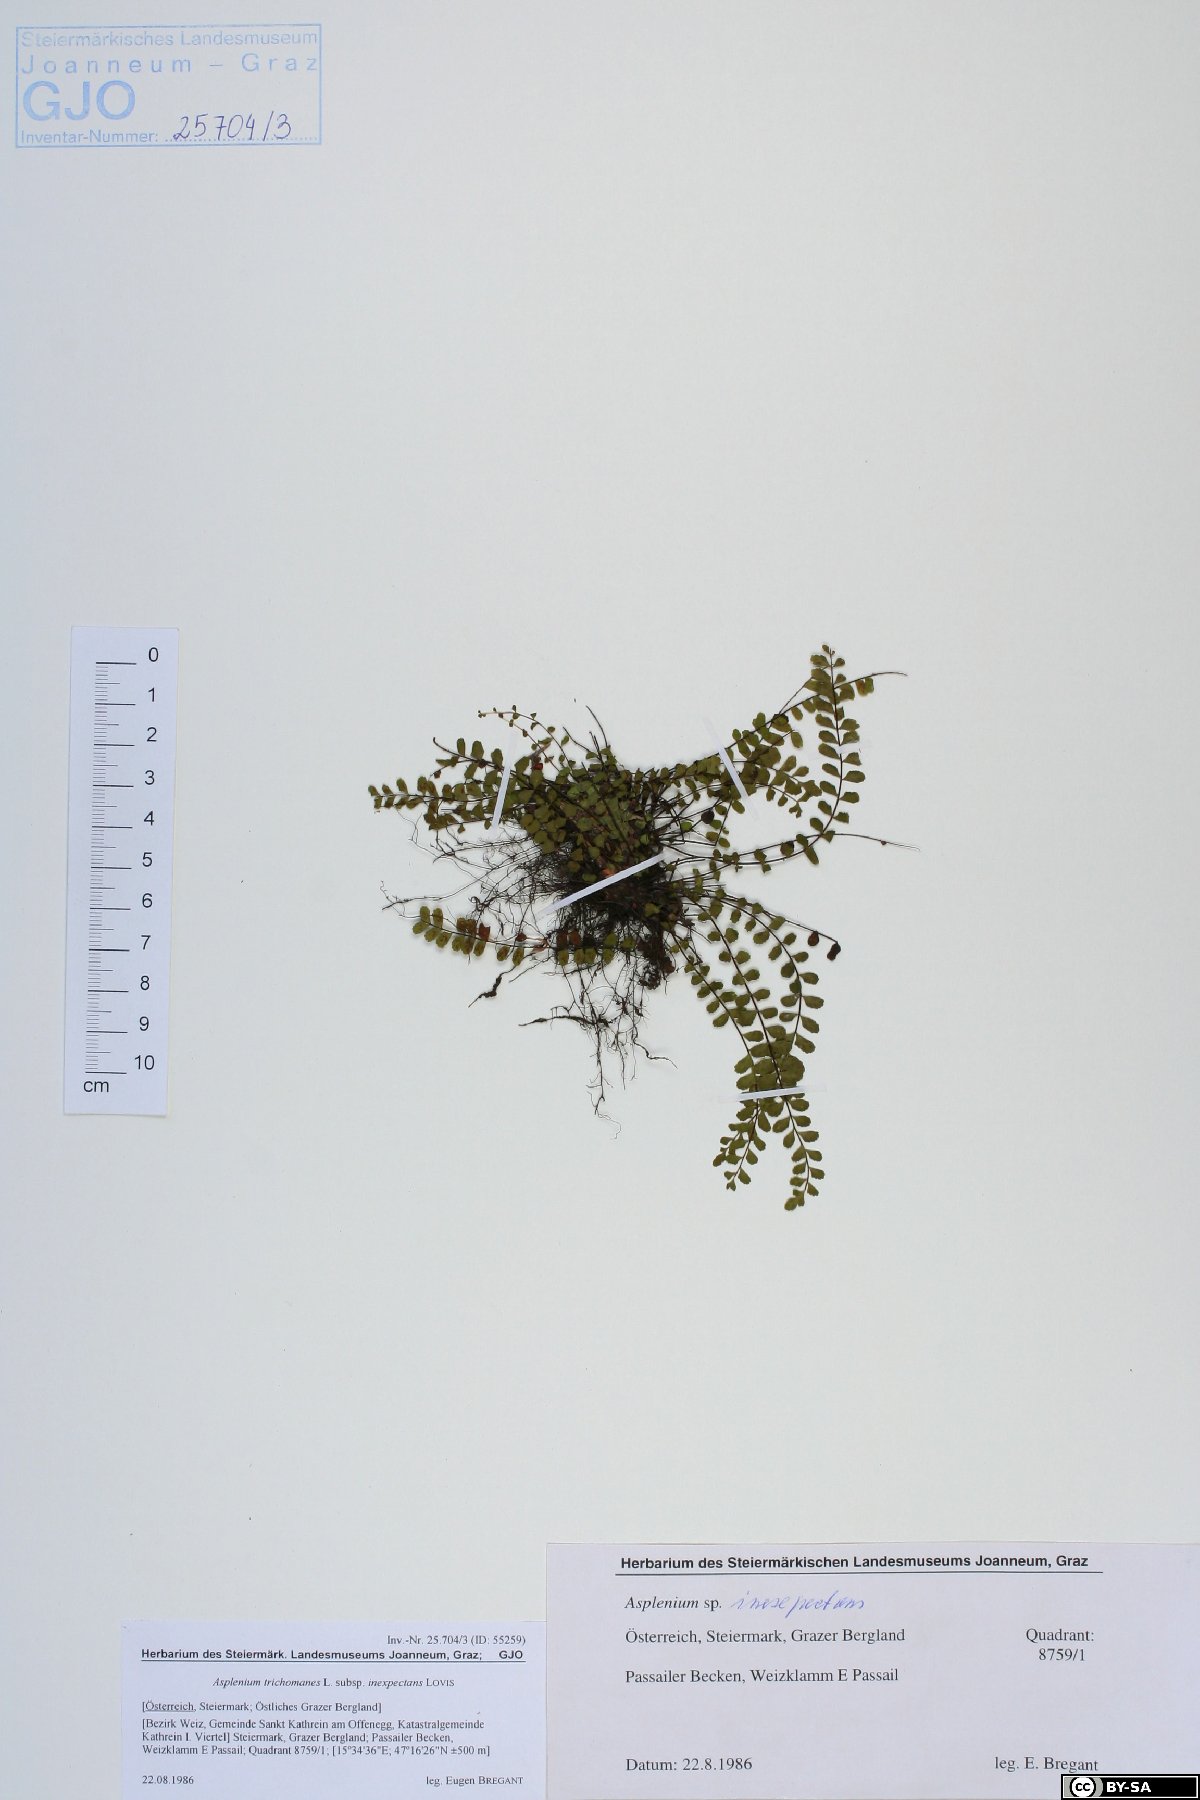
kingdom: Plantae
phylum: Tracheophyta
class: Polypodiopsida
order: Polypodiales
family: Aspleniaceae
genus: Asplenium
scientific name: Asplenium inexpectans
